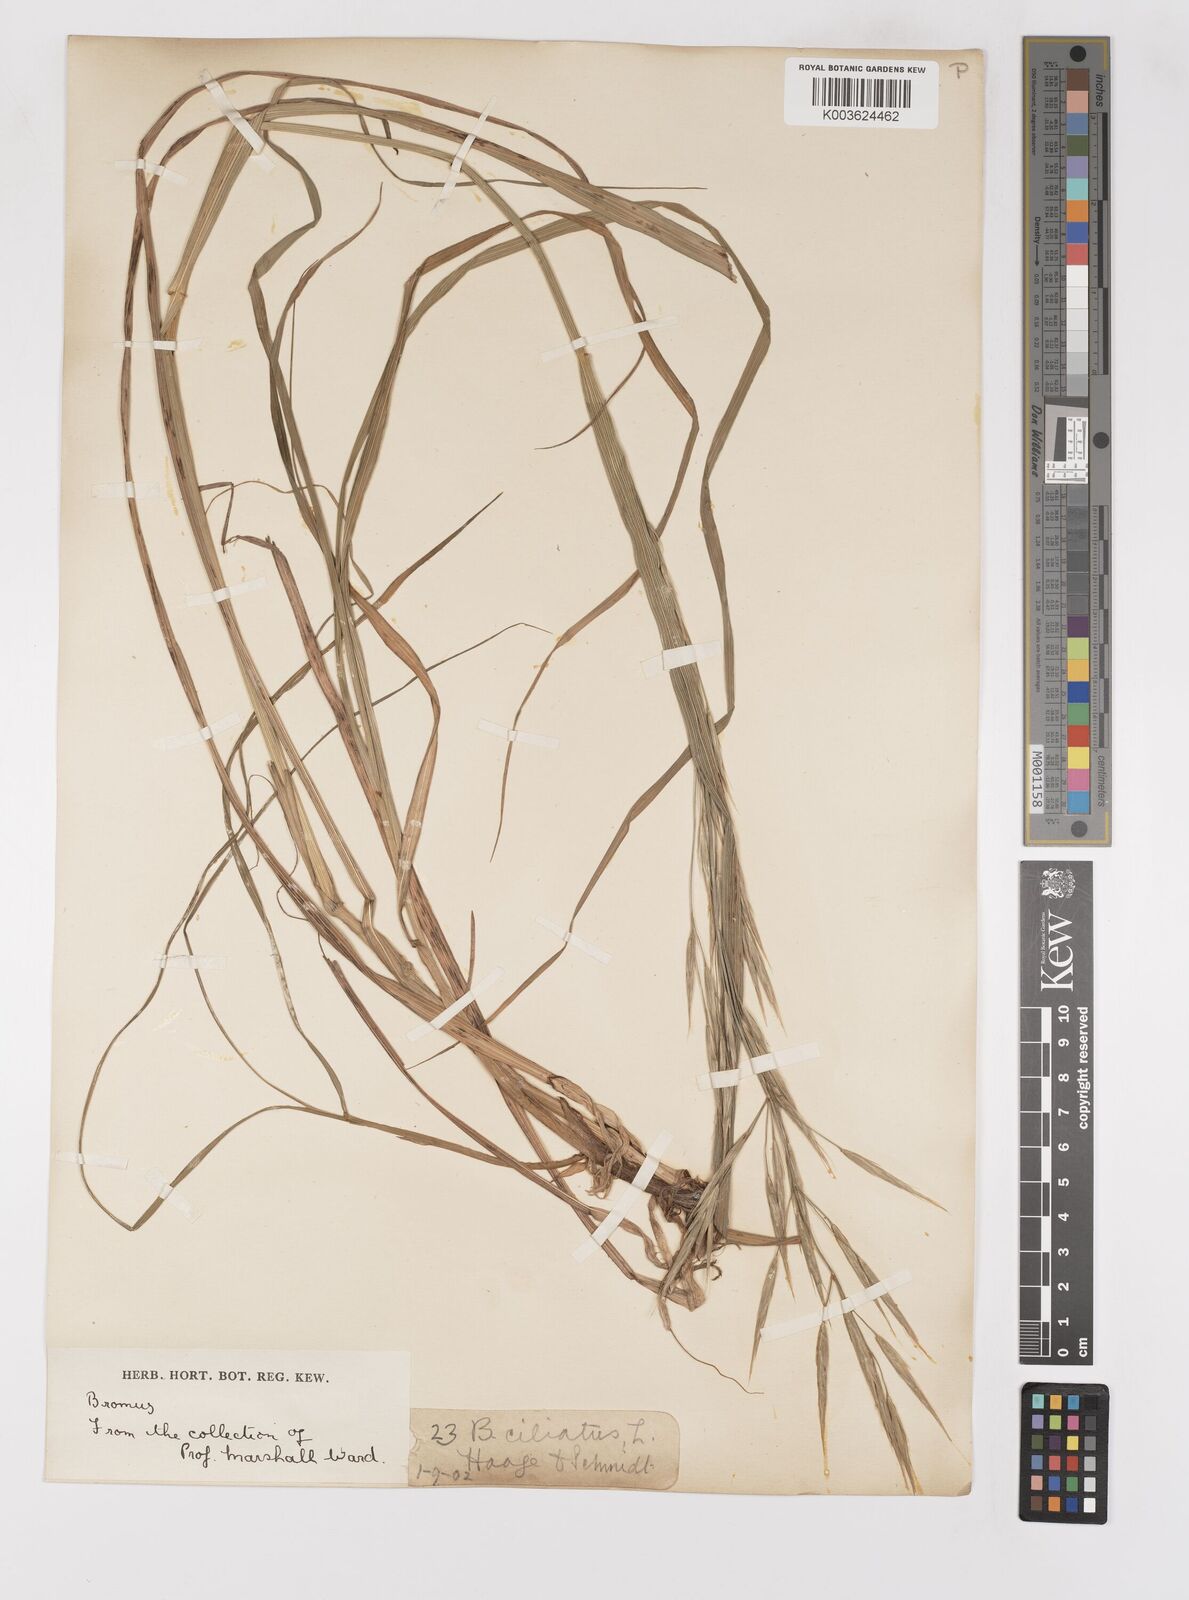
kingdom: Plantae
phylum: Tracheophyta
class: Liliopsida
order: Poales
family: Poaceae
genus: Bromus
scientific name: Bromus
